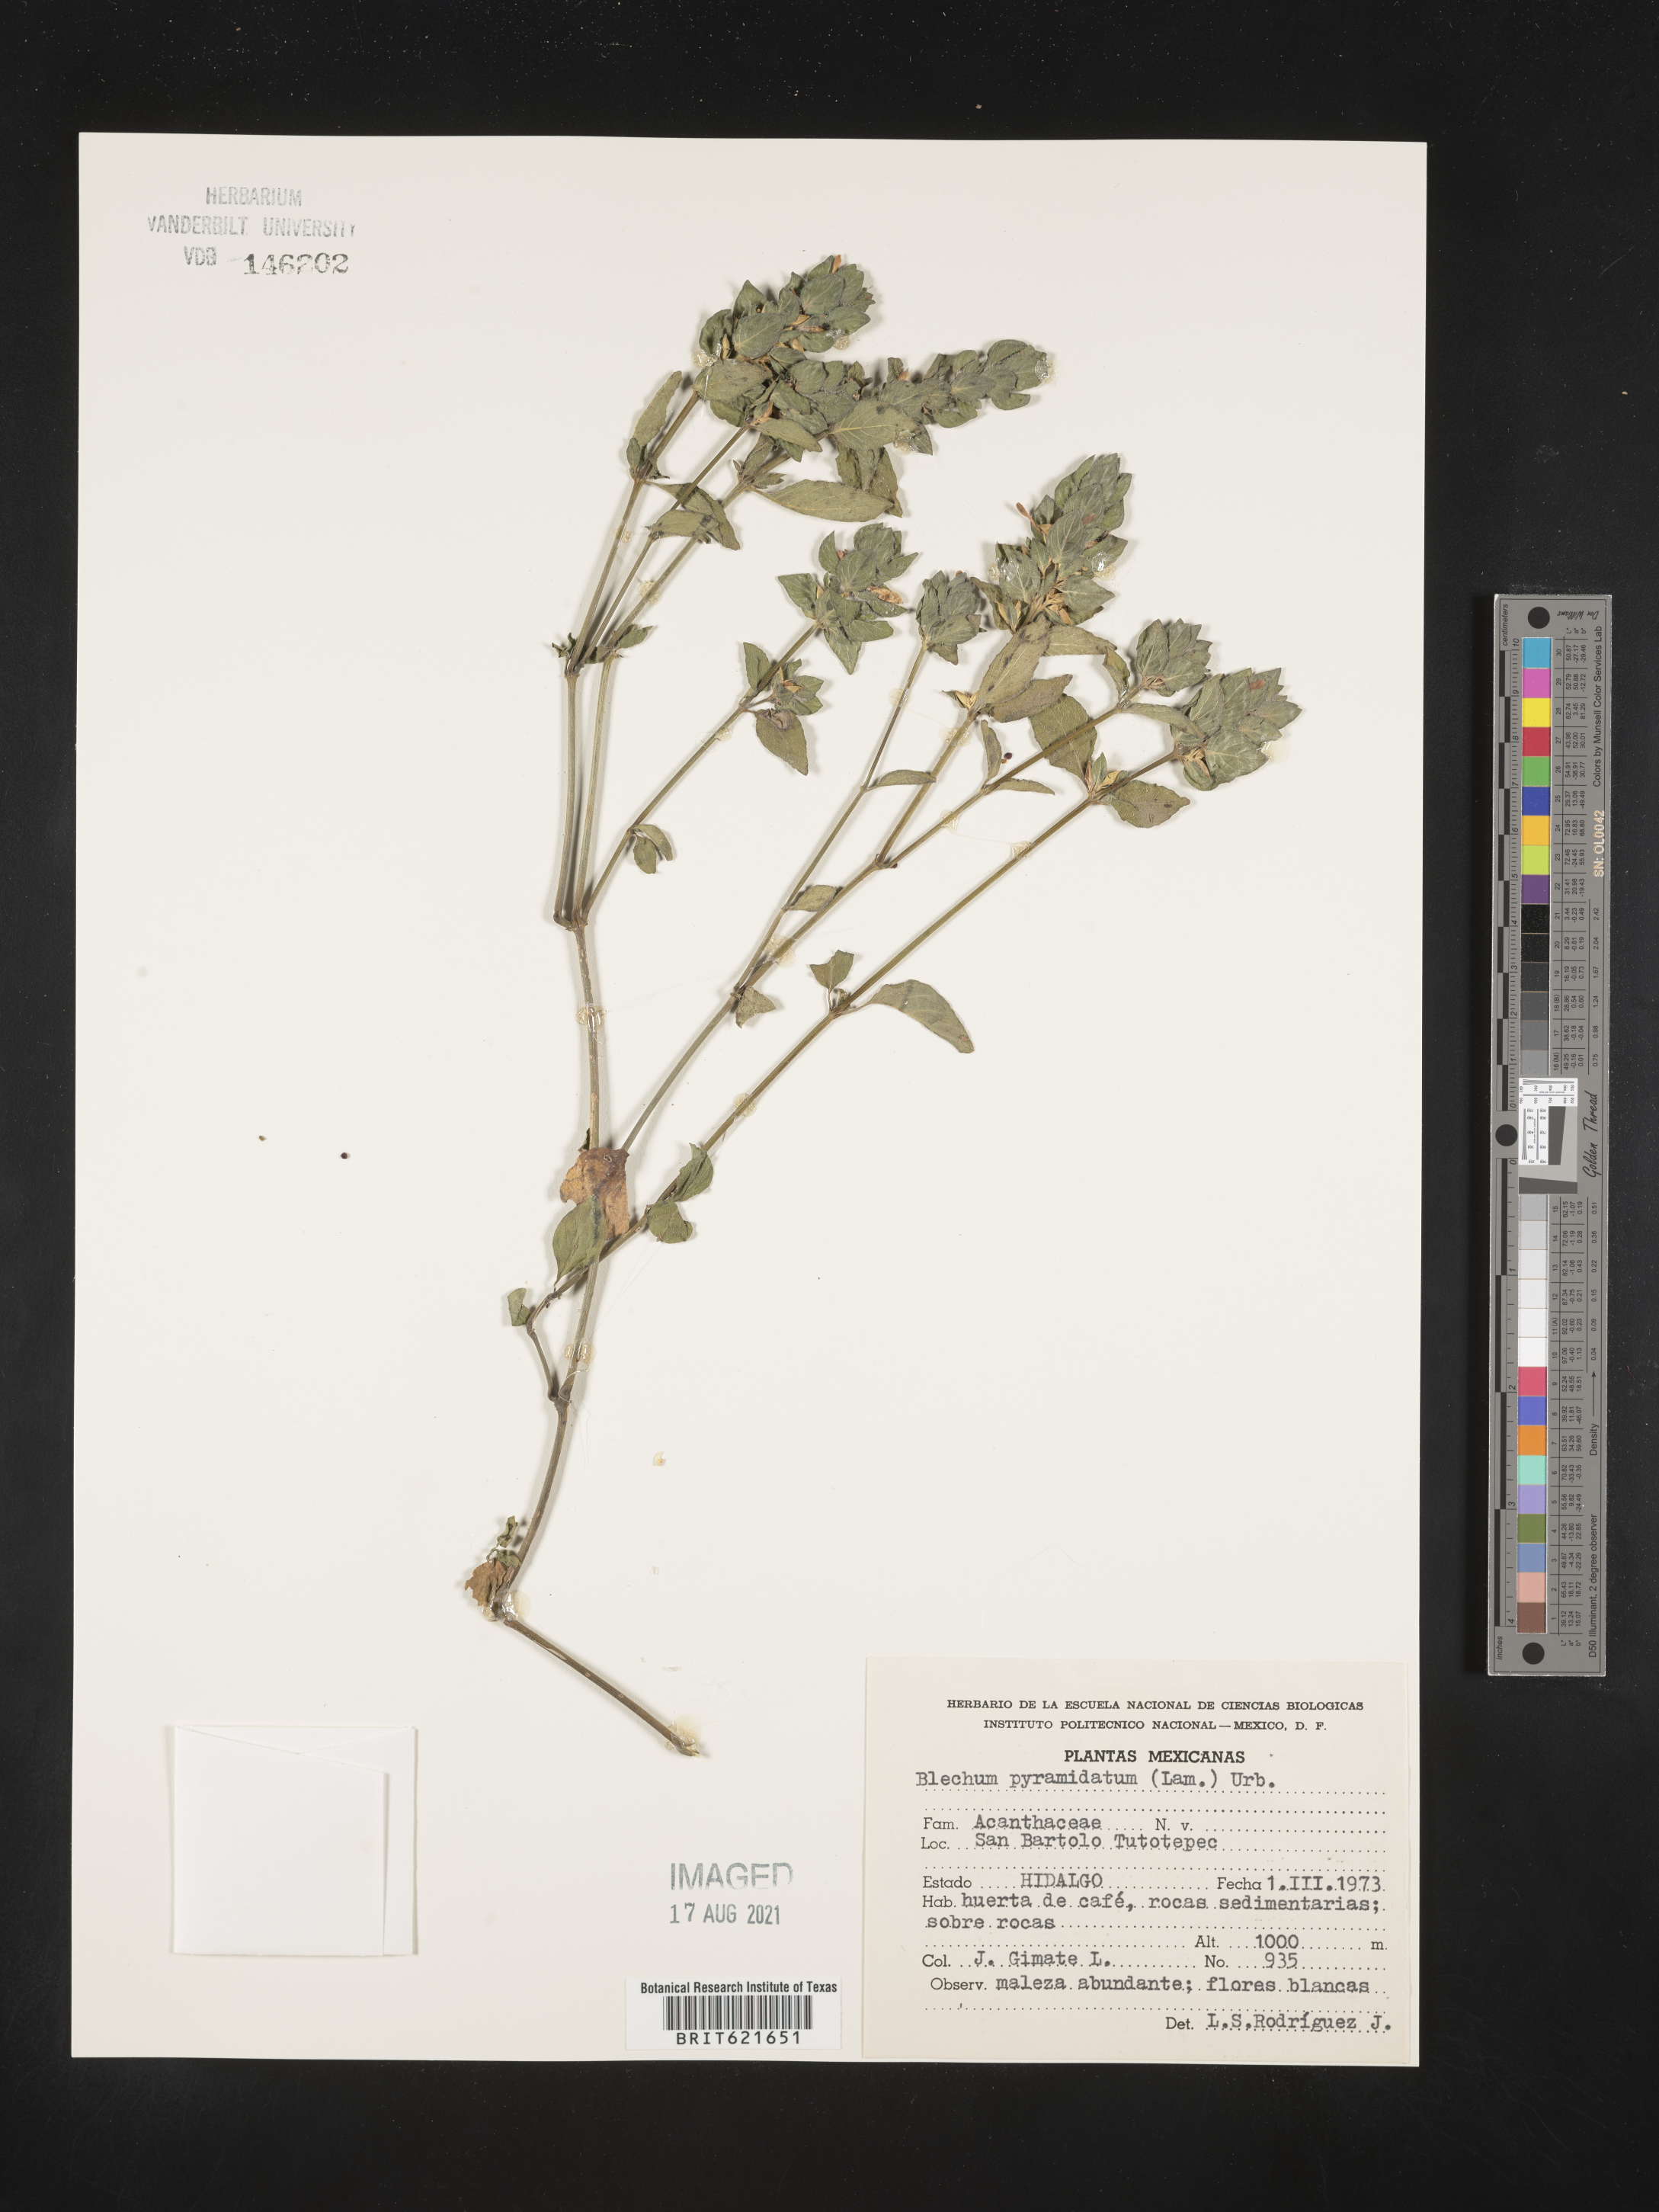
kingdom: Plantae
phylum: Tracheophyta
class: Polypodiopsida
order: Polypodiales
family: Blechnaceae
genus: Blechum
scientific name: Blechum
